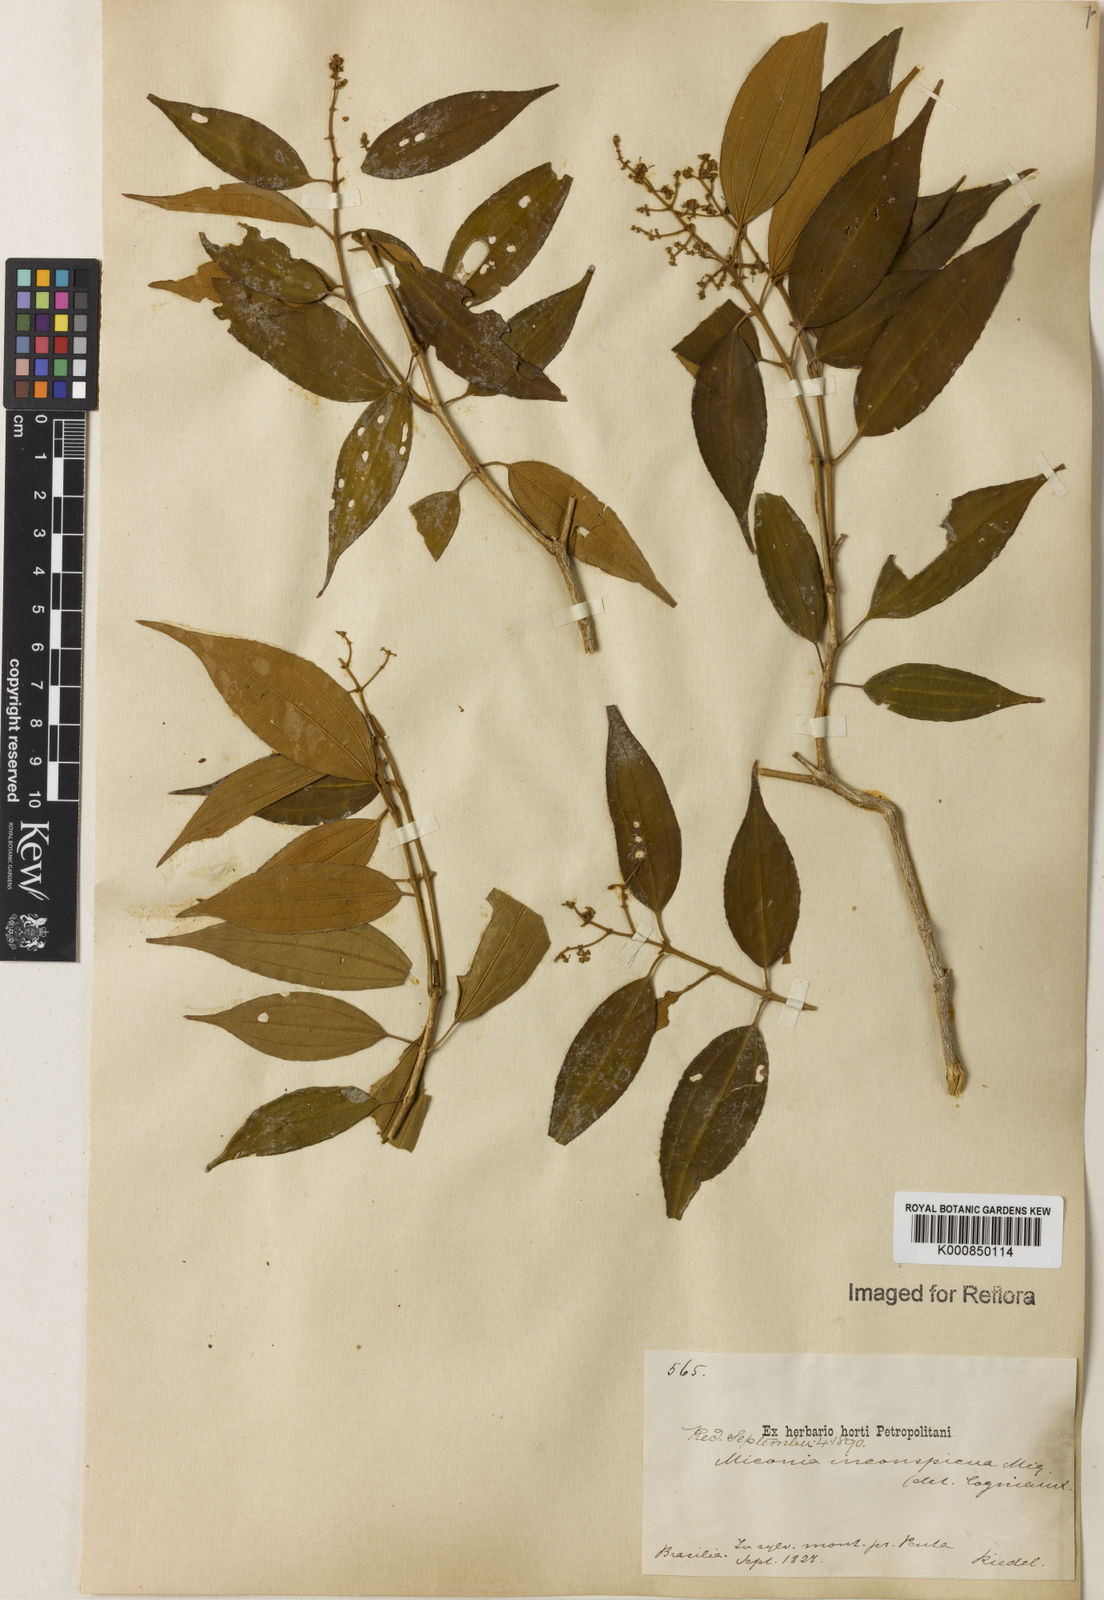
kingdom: Plantae
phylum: Tracheophyta
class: Magnoliopsida
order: Myrtales
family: Melastomataceae
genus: Miconia
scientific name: Miconia inconspicua
